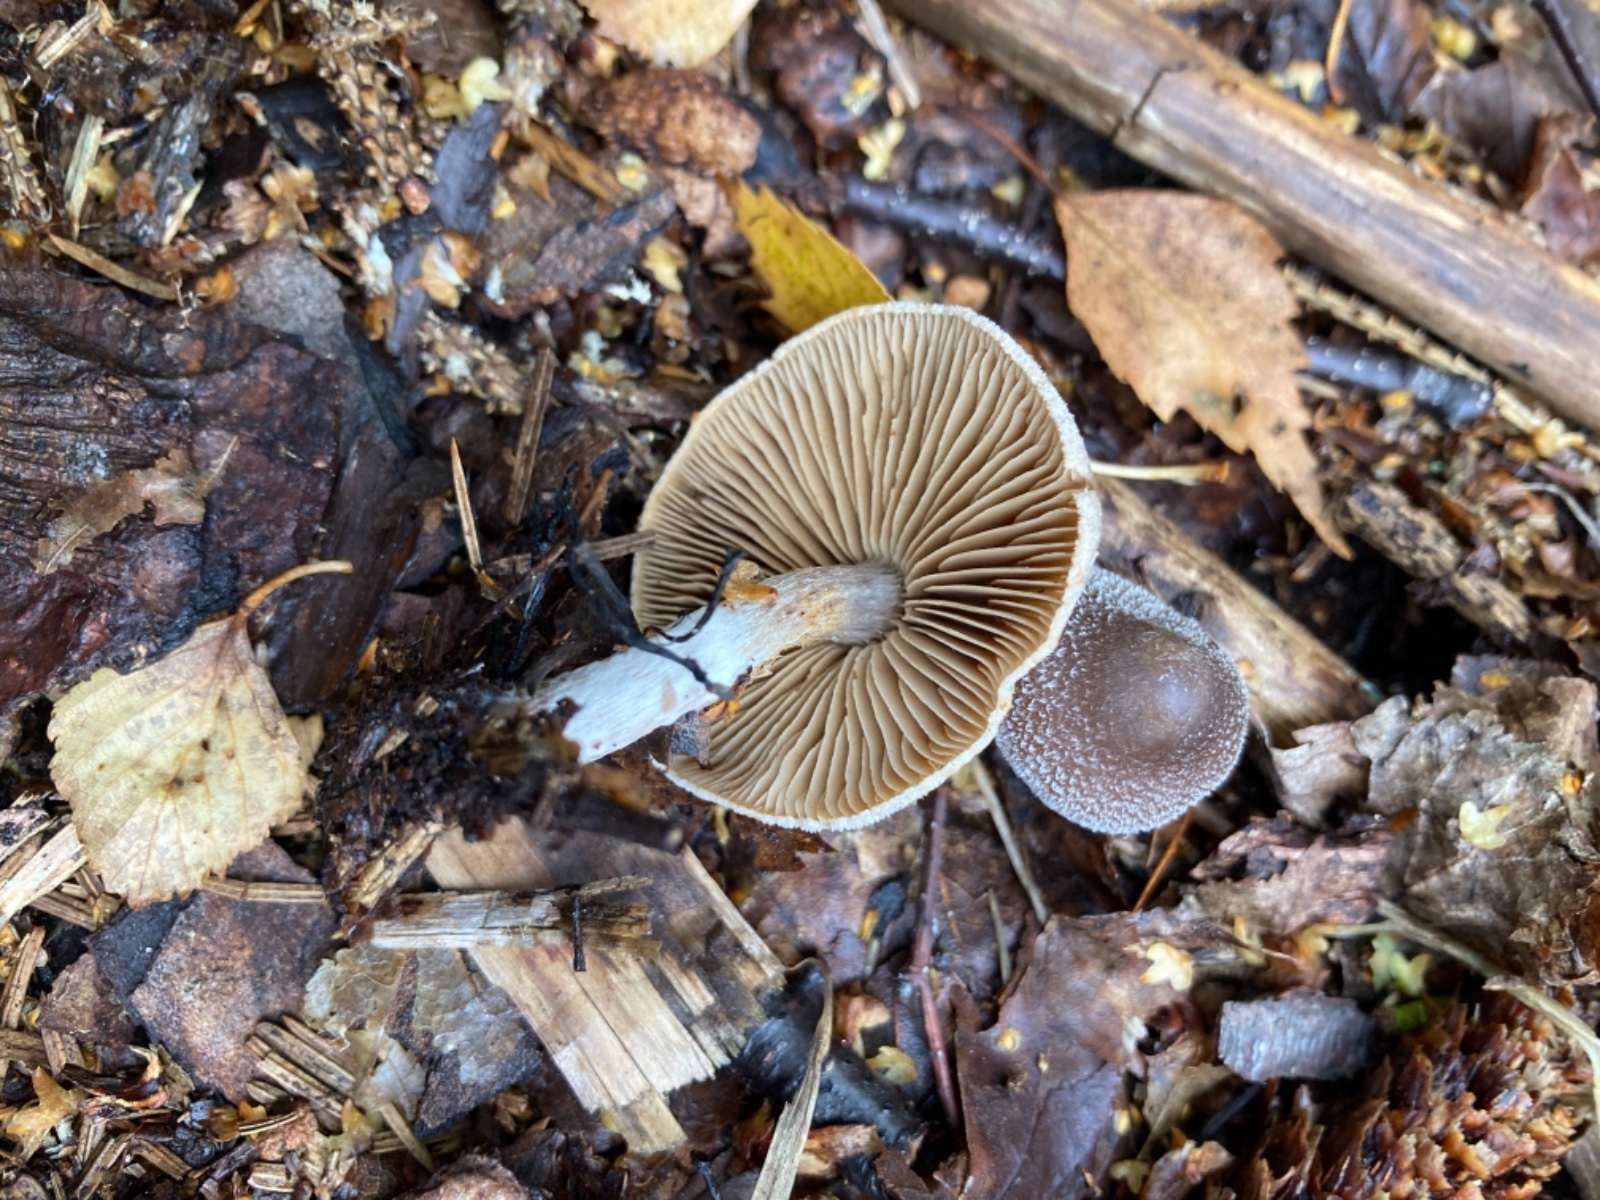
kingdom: Fungi
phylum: Basidiomycota
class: Agaricomycetes
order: Agaricales
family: Cortinariaceae
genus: Cortinarius
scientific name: Cortinarius hemitrichus
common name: hvidfnugget slørhat
